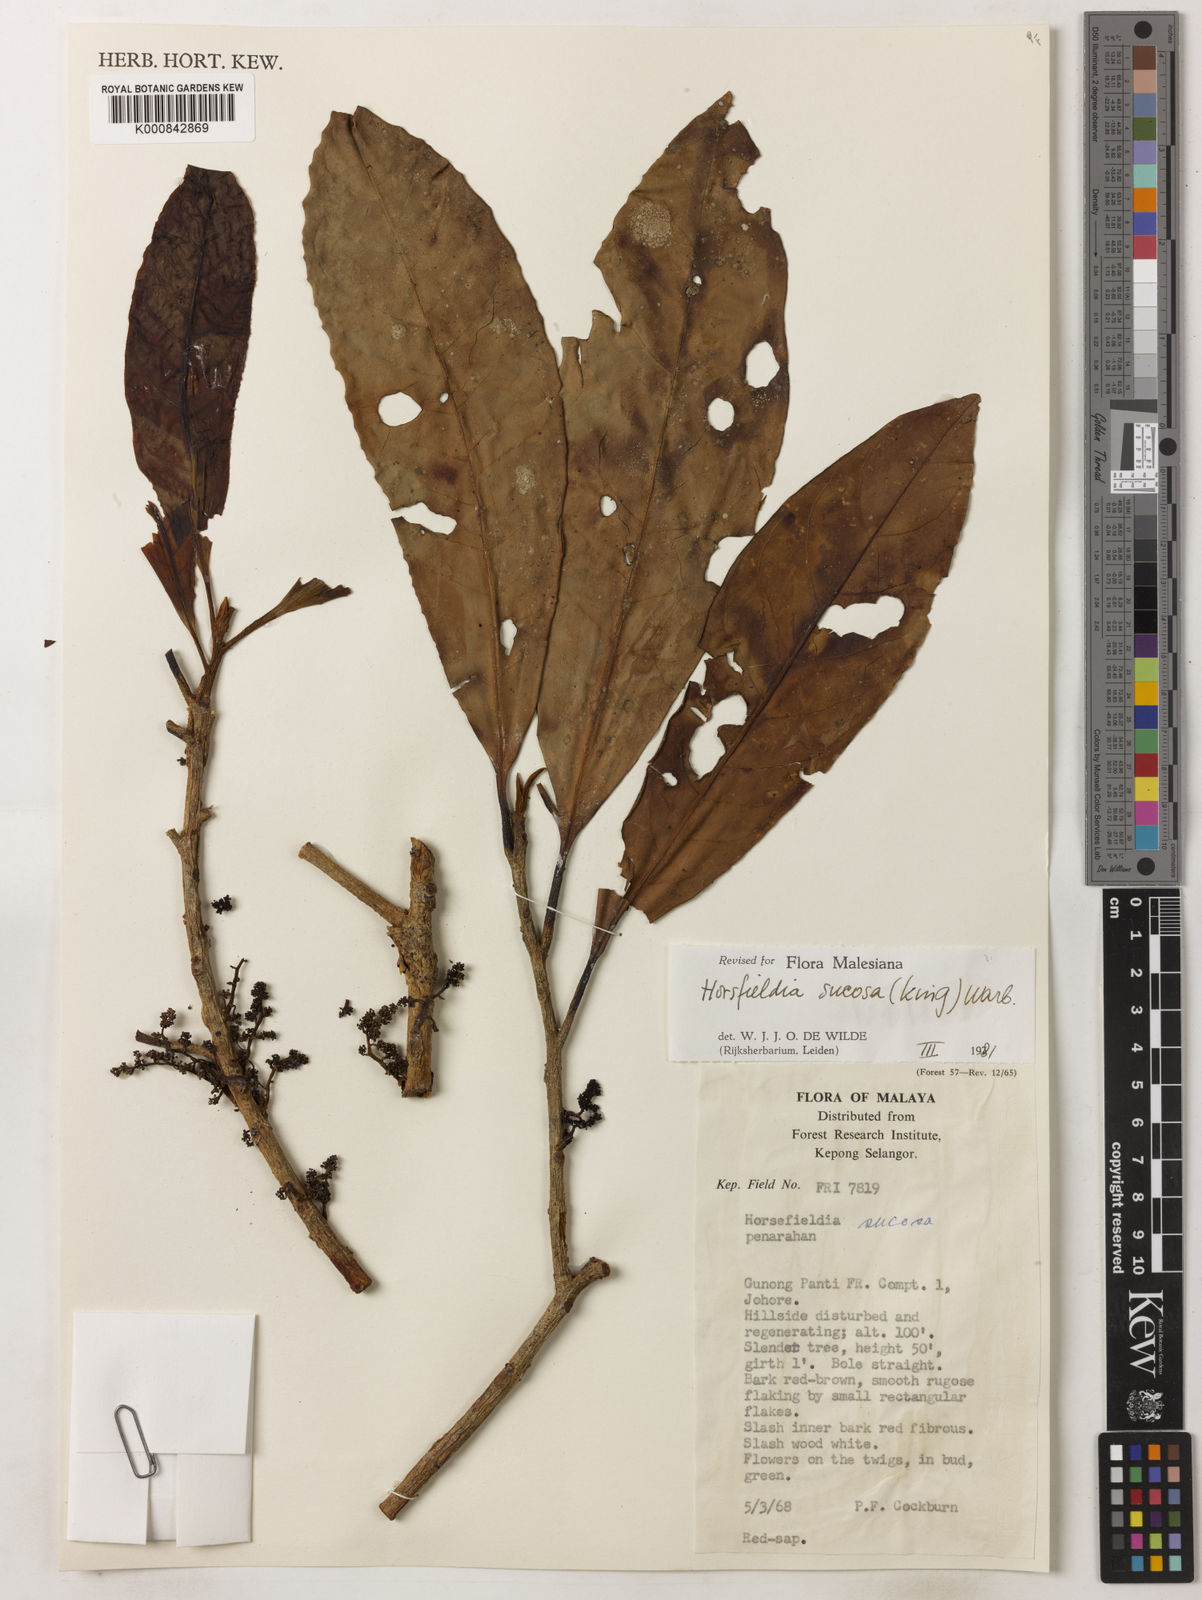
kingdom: Plantae
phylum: Tracheophyta
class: Magnoliopsida
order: Magnoliales
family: Myristicaceae
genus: Horsfieldia
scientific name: Horsfieldia sucosa
